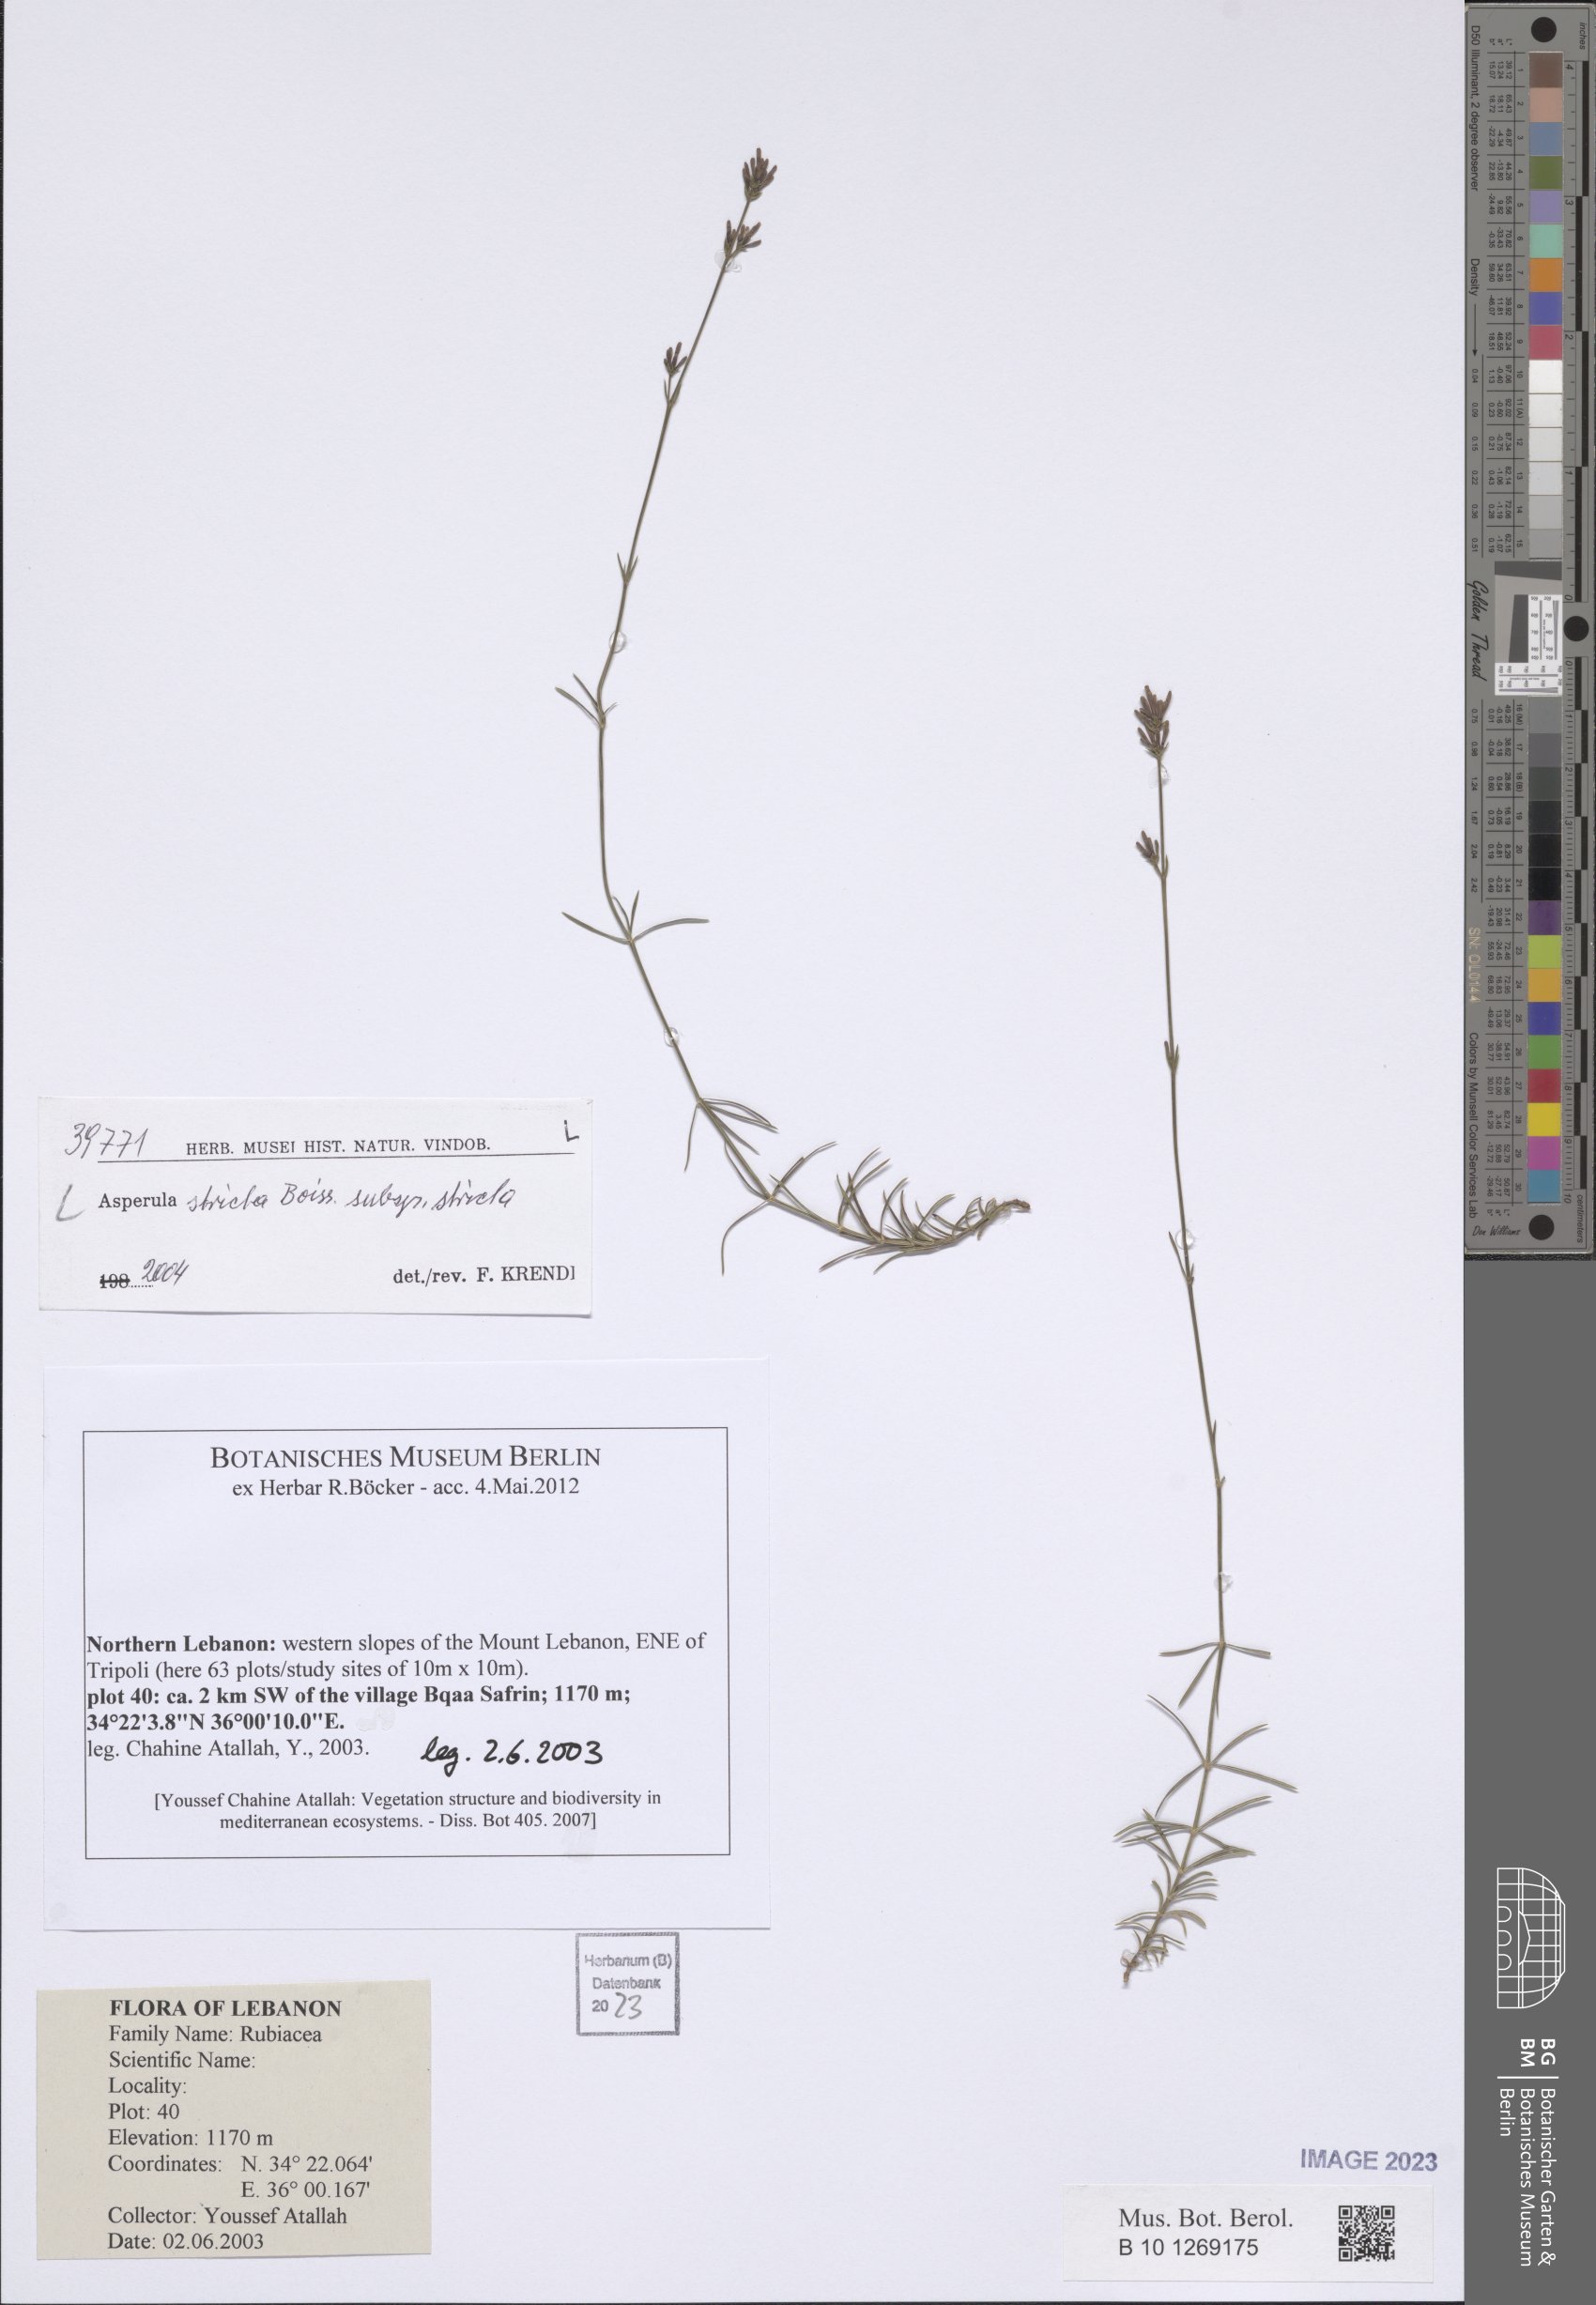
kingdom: Plantae
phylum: Tracheophyta
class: Magnoliopsida
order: Gentianales
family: Rubiaceae
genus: Cynanchica
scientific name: Cynanchica stricta
